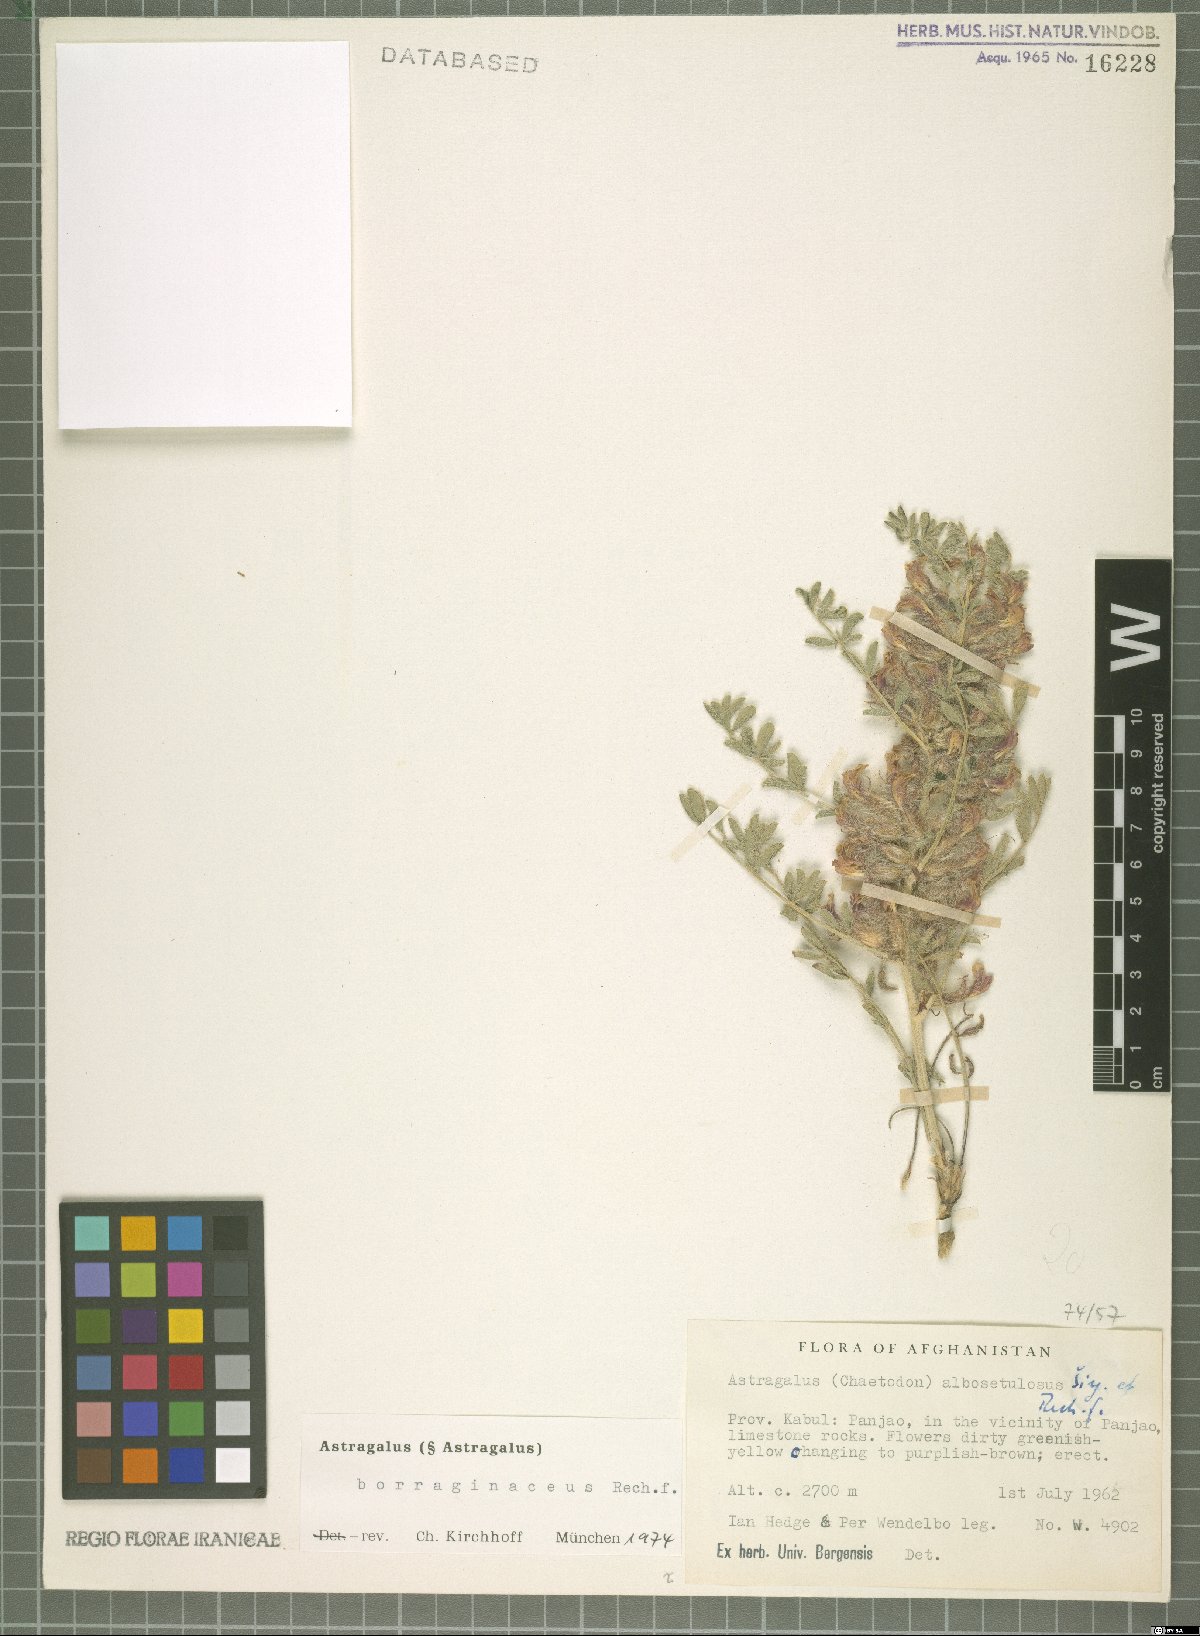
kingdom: Plantae
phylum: Tracheophyta
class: Magnoliopsida
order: Fabales
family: Fabaceae
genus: Astragalus
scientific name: Astragalus borraginaceus
